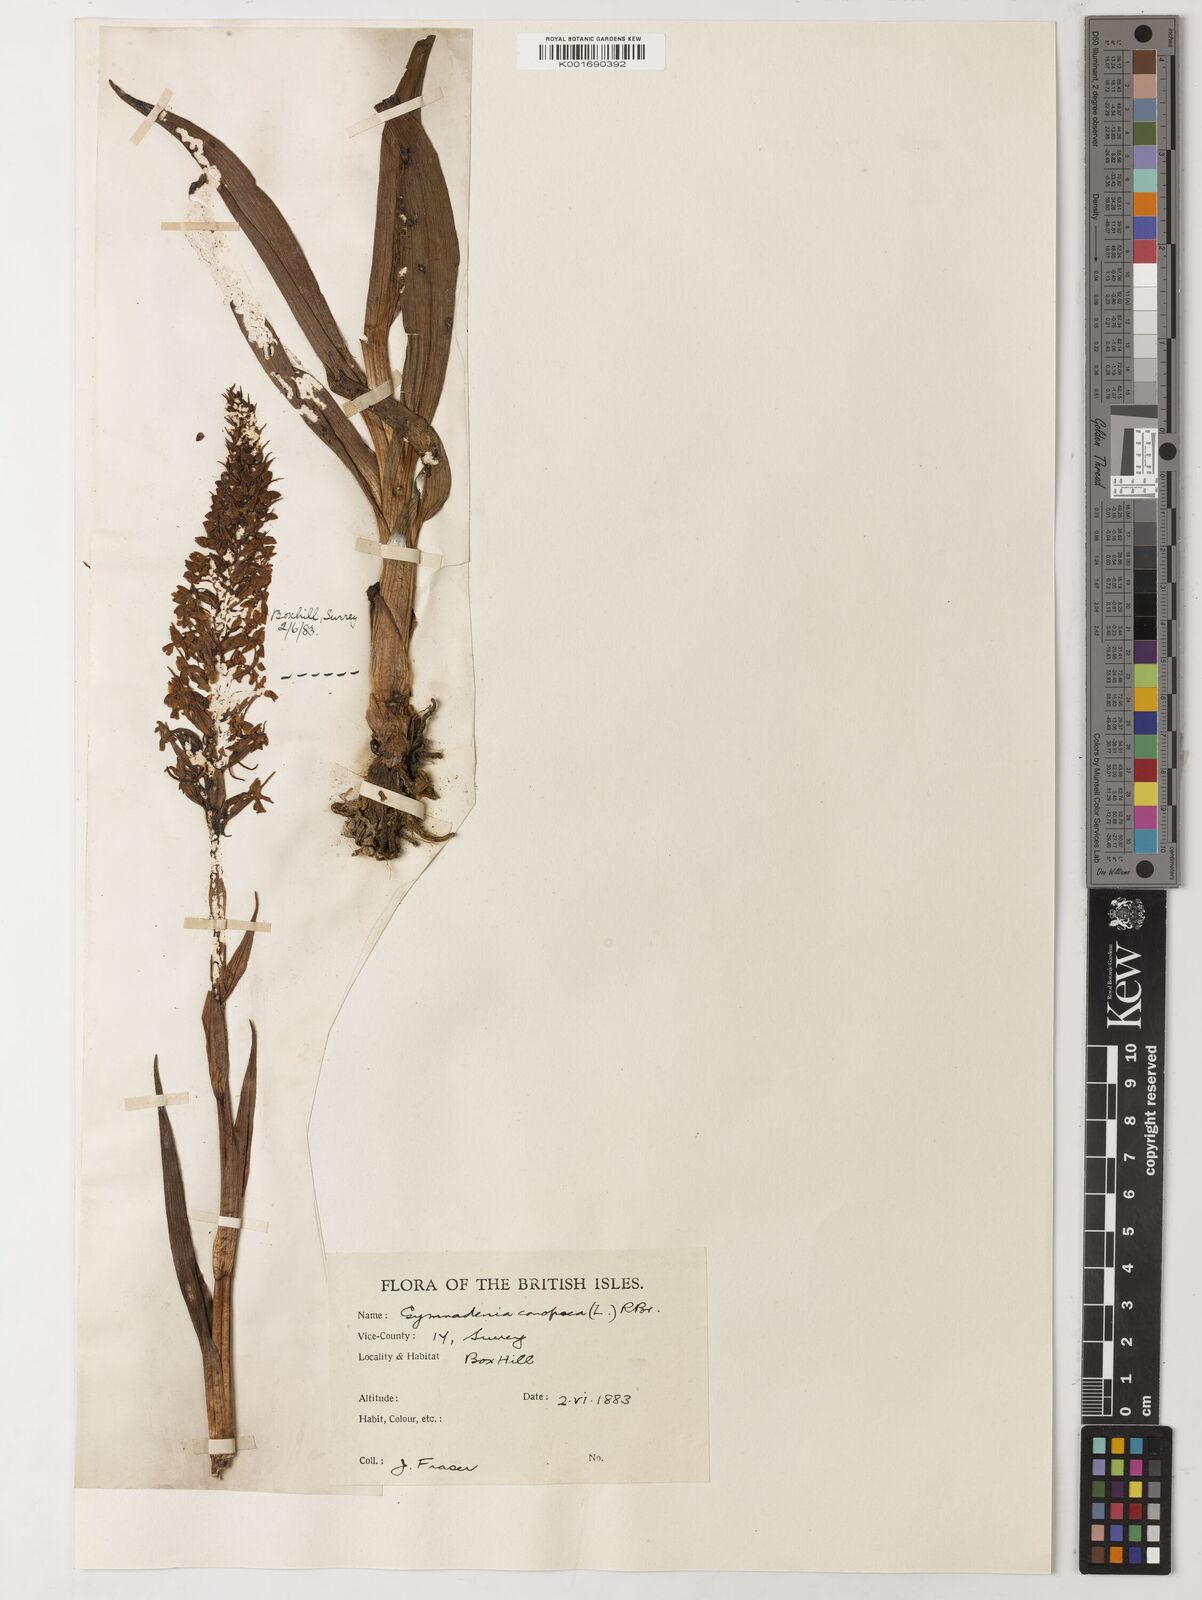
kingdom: Plantae
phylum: Tracheophyta
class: Magnoliopsida
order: Fabales
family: Fabaceae
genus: Holocalyx
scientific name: Holocalyx balansae
